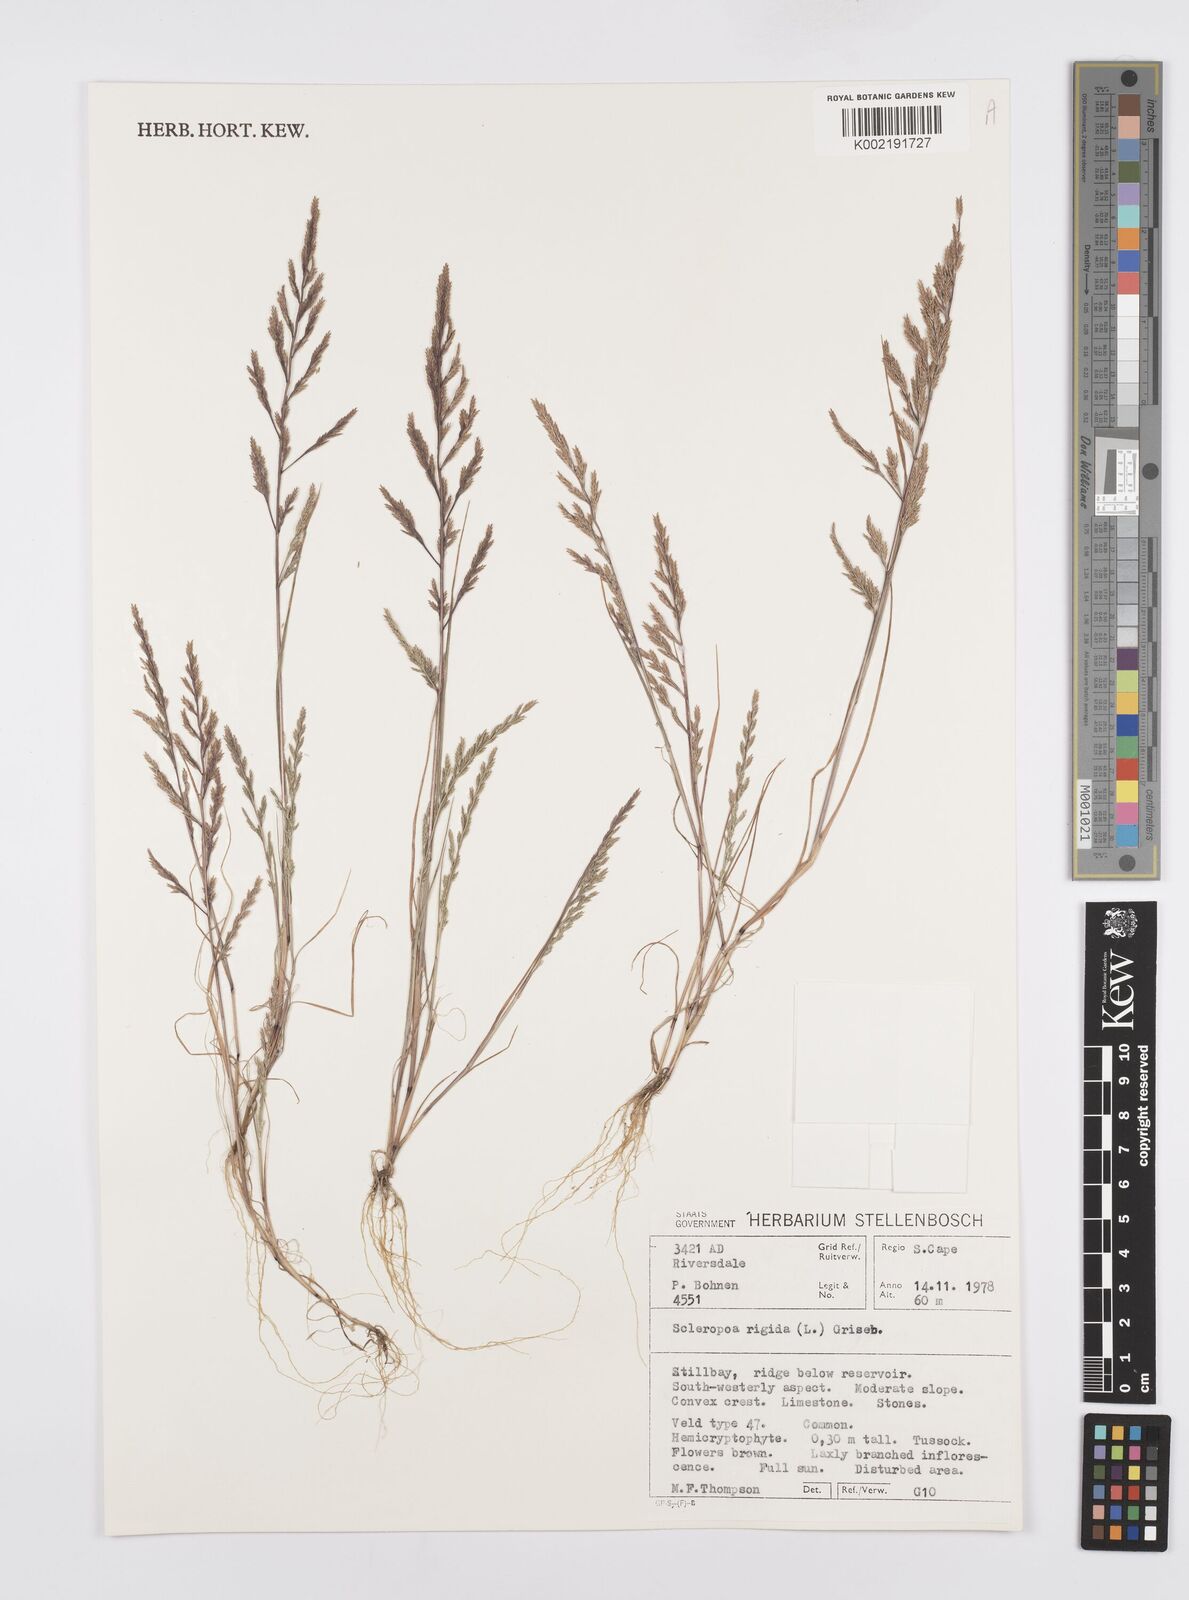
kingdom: Plantae
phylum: Tracheophyta
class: Liliopsida
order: Poales
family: Poaceae
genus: Catapodium
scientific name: Catapodium rigidum
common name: Fern-grass
